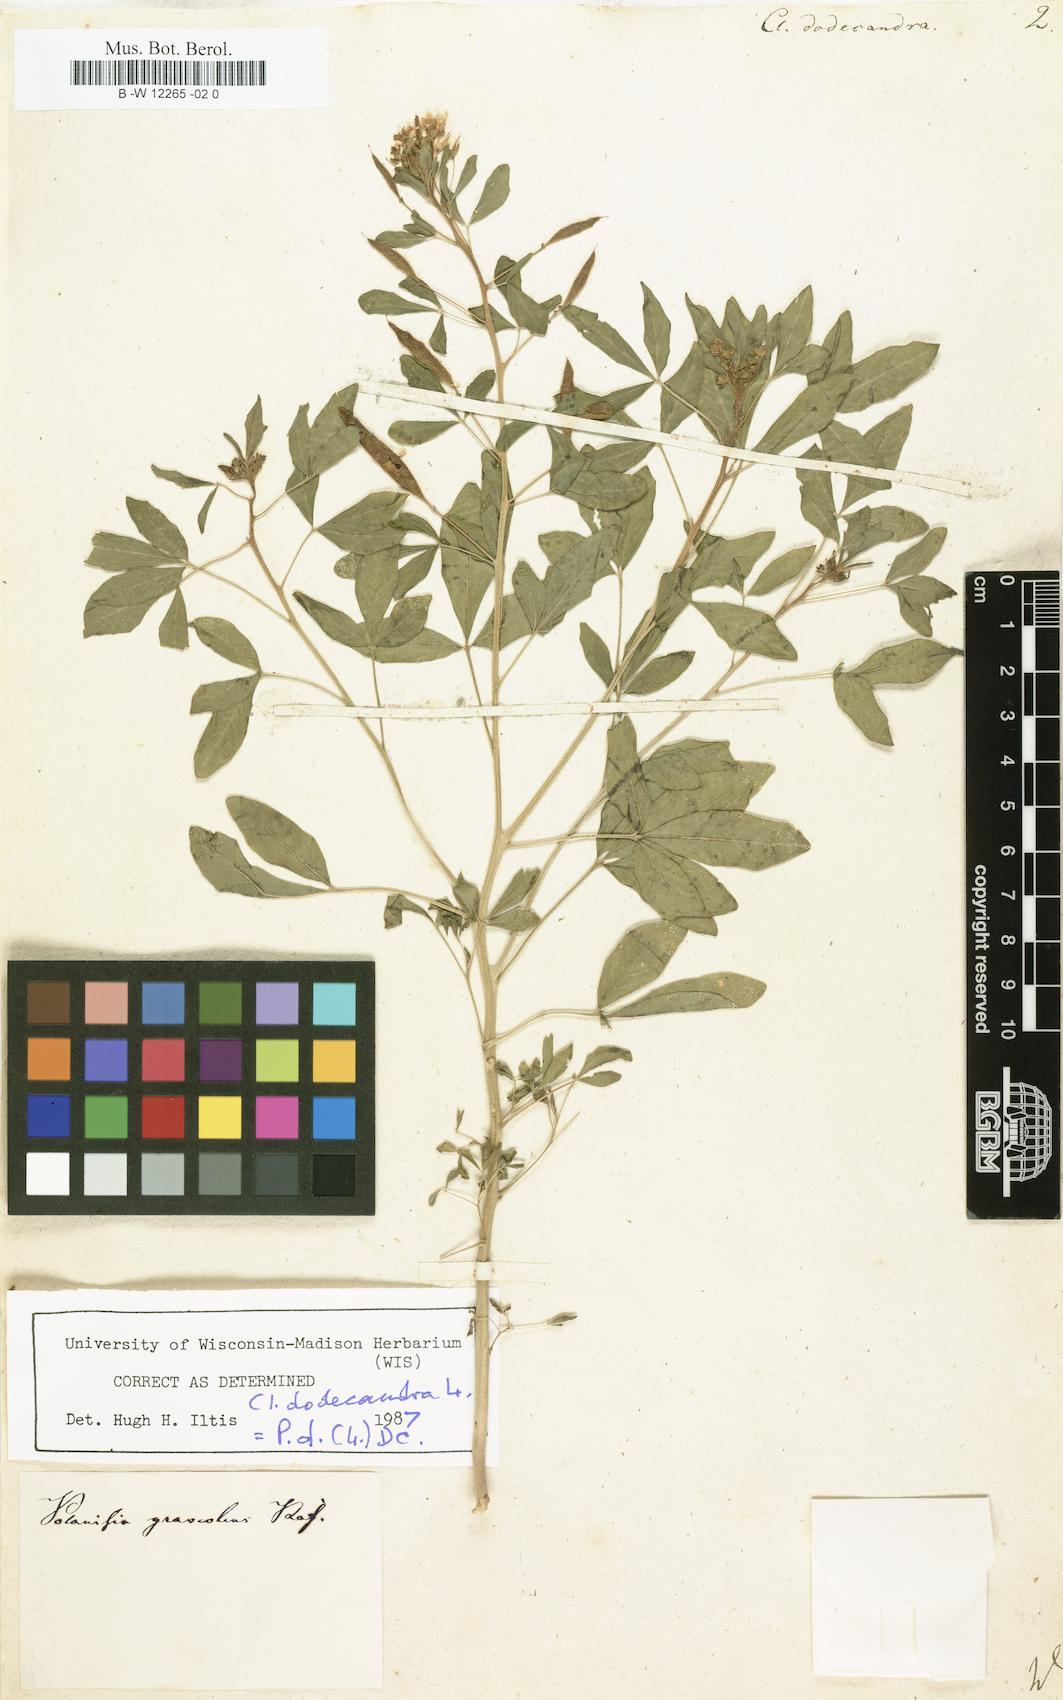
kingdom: Plantae
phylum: Tracheophyta
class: Magnoliopsida
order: Brassicales
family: Cleomaceae
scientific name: Cleomaceae
